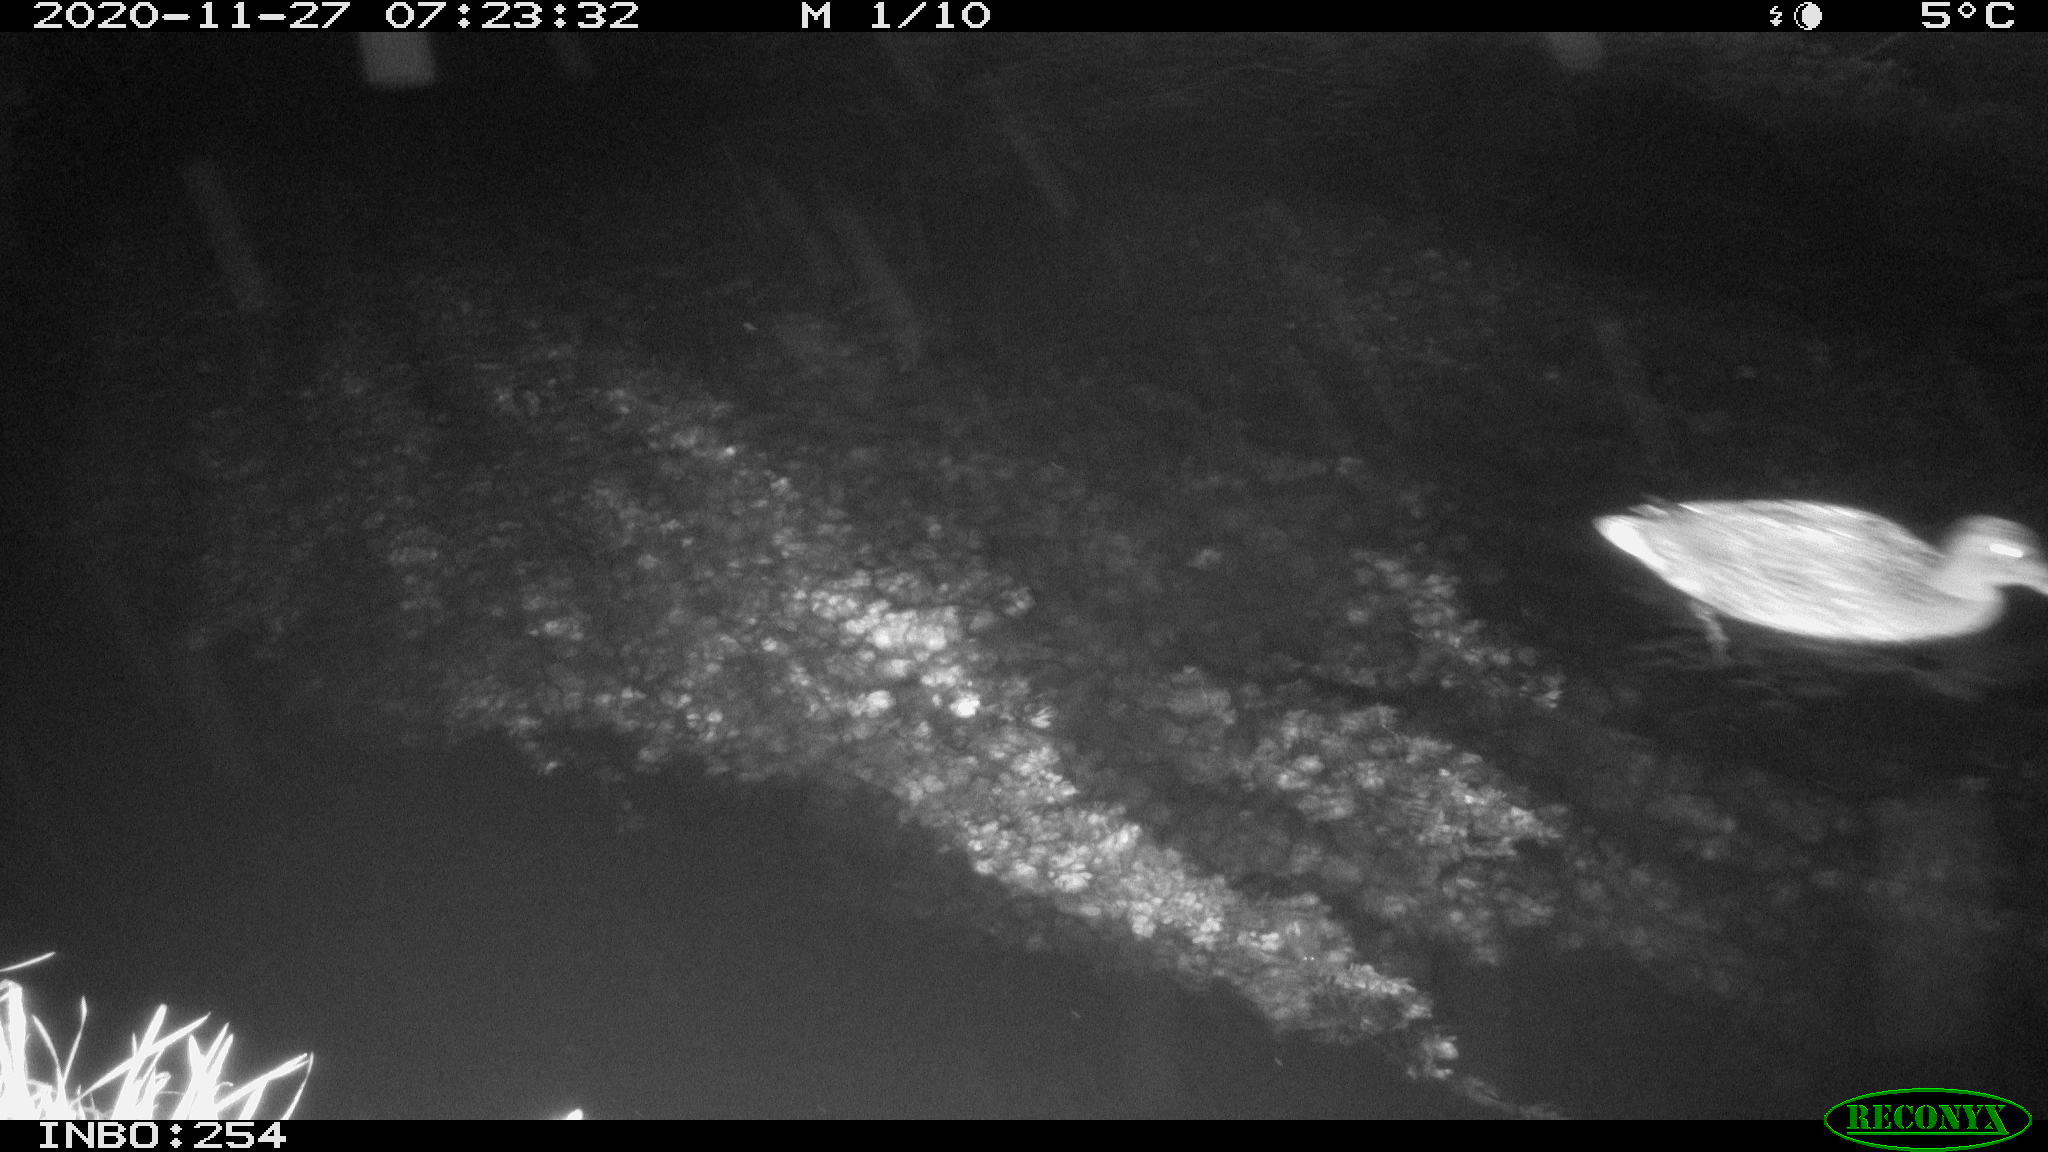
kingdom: Animalia
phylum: Chordata
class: Aves
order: Anseriformes
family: Anatidae
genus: Anas
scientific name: Anas platyrhynchos
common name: Mallard
